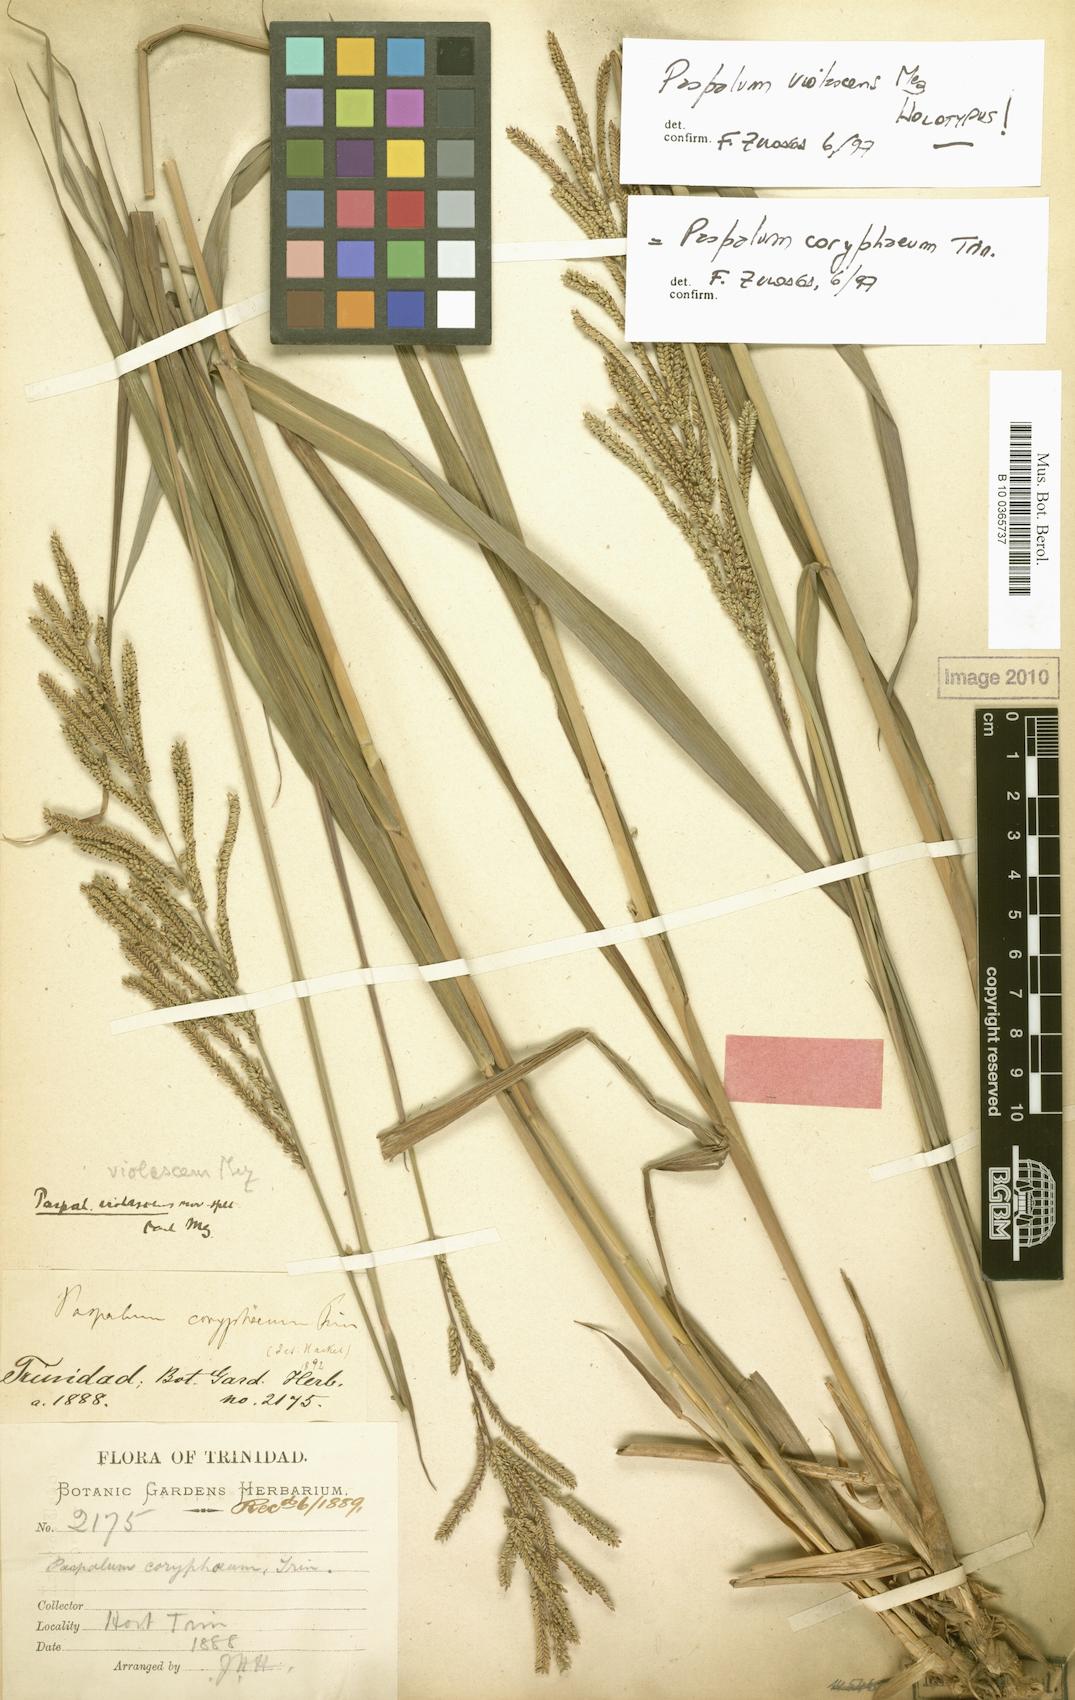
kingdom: Plantae
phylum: Tracheophyta
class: Liliopsida
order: Poales
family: Poaceae
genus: Paspalum
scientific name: Paspalum coryphaeum
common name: Emperor crowngrass
